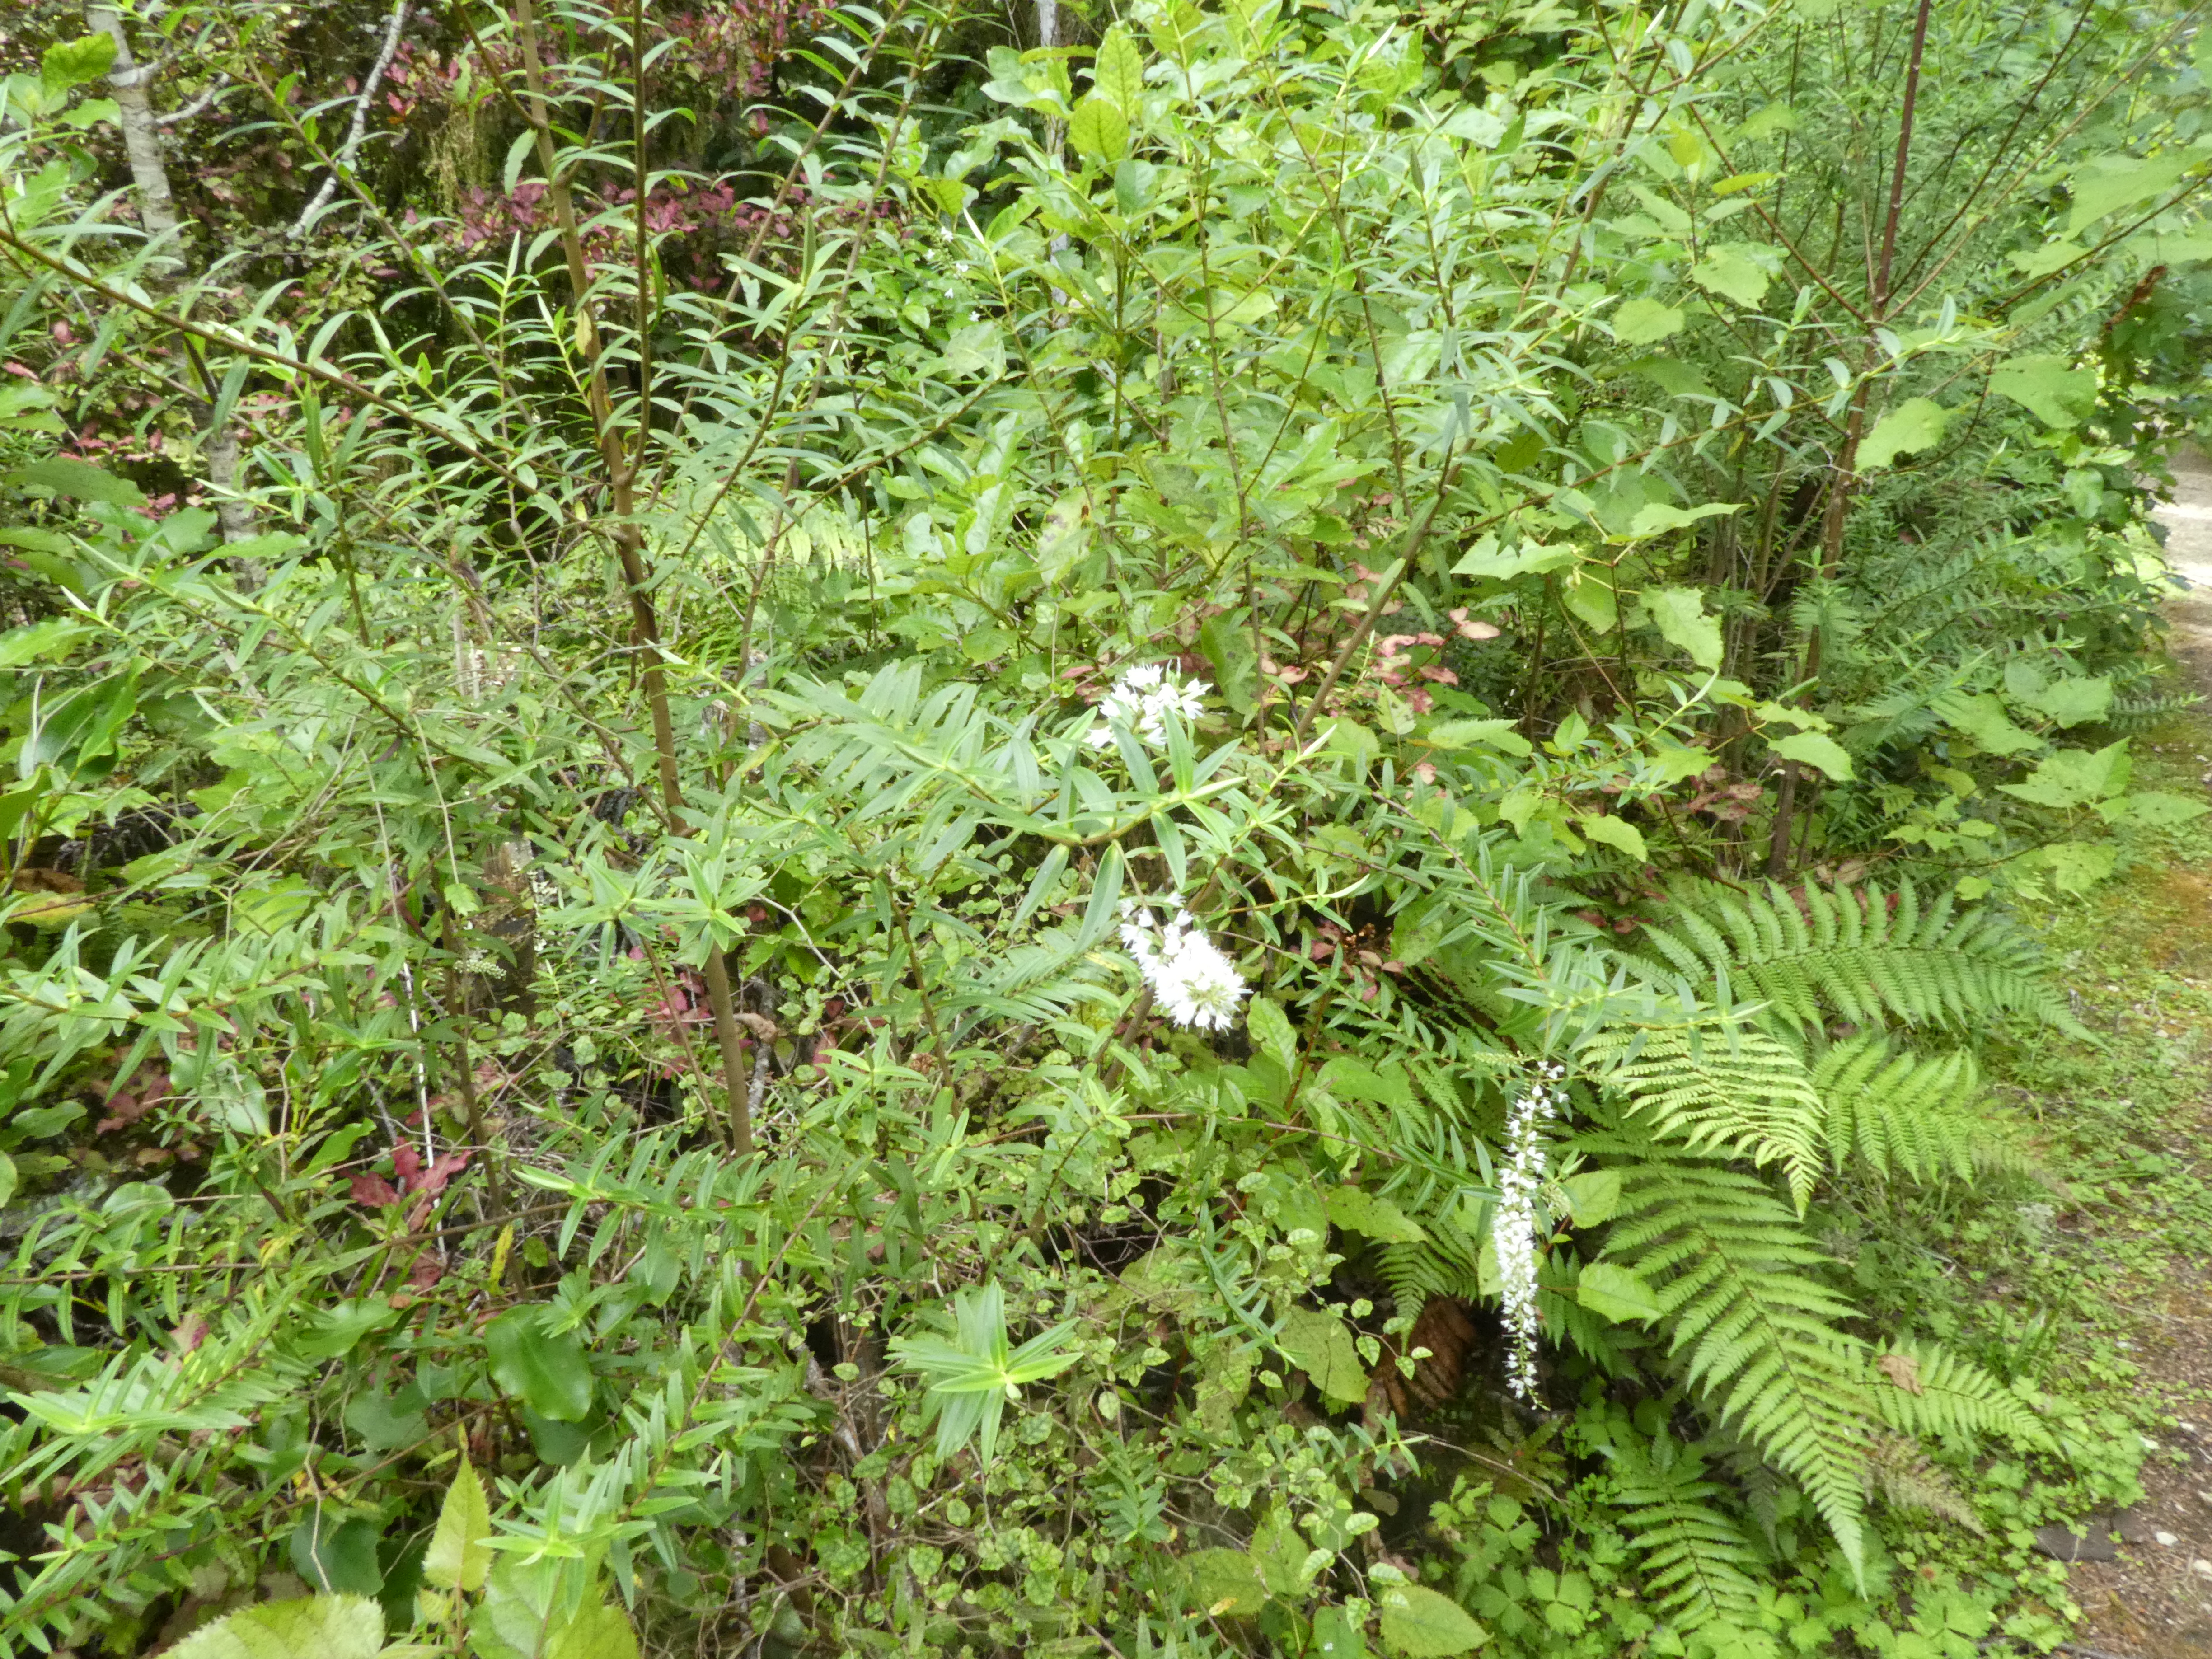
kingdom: Plantae
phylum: Tracheophyta
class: Magnoliopsida
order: Lamiales
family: Plantaginaceae
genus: Veronica
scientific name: Veronica leiophylla
